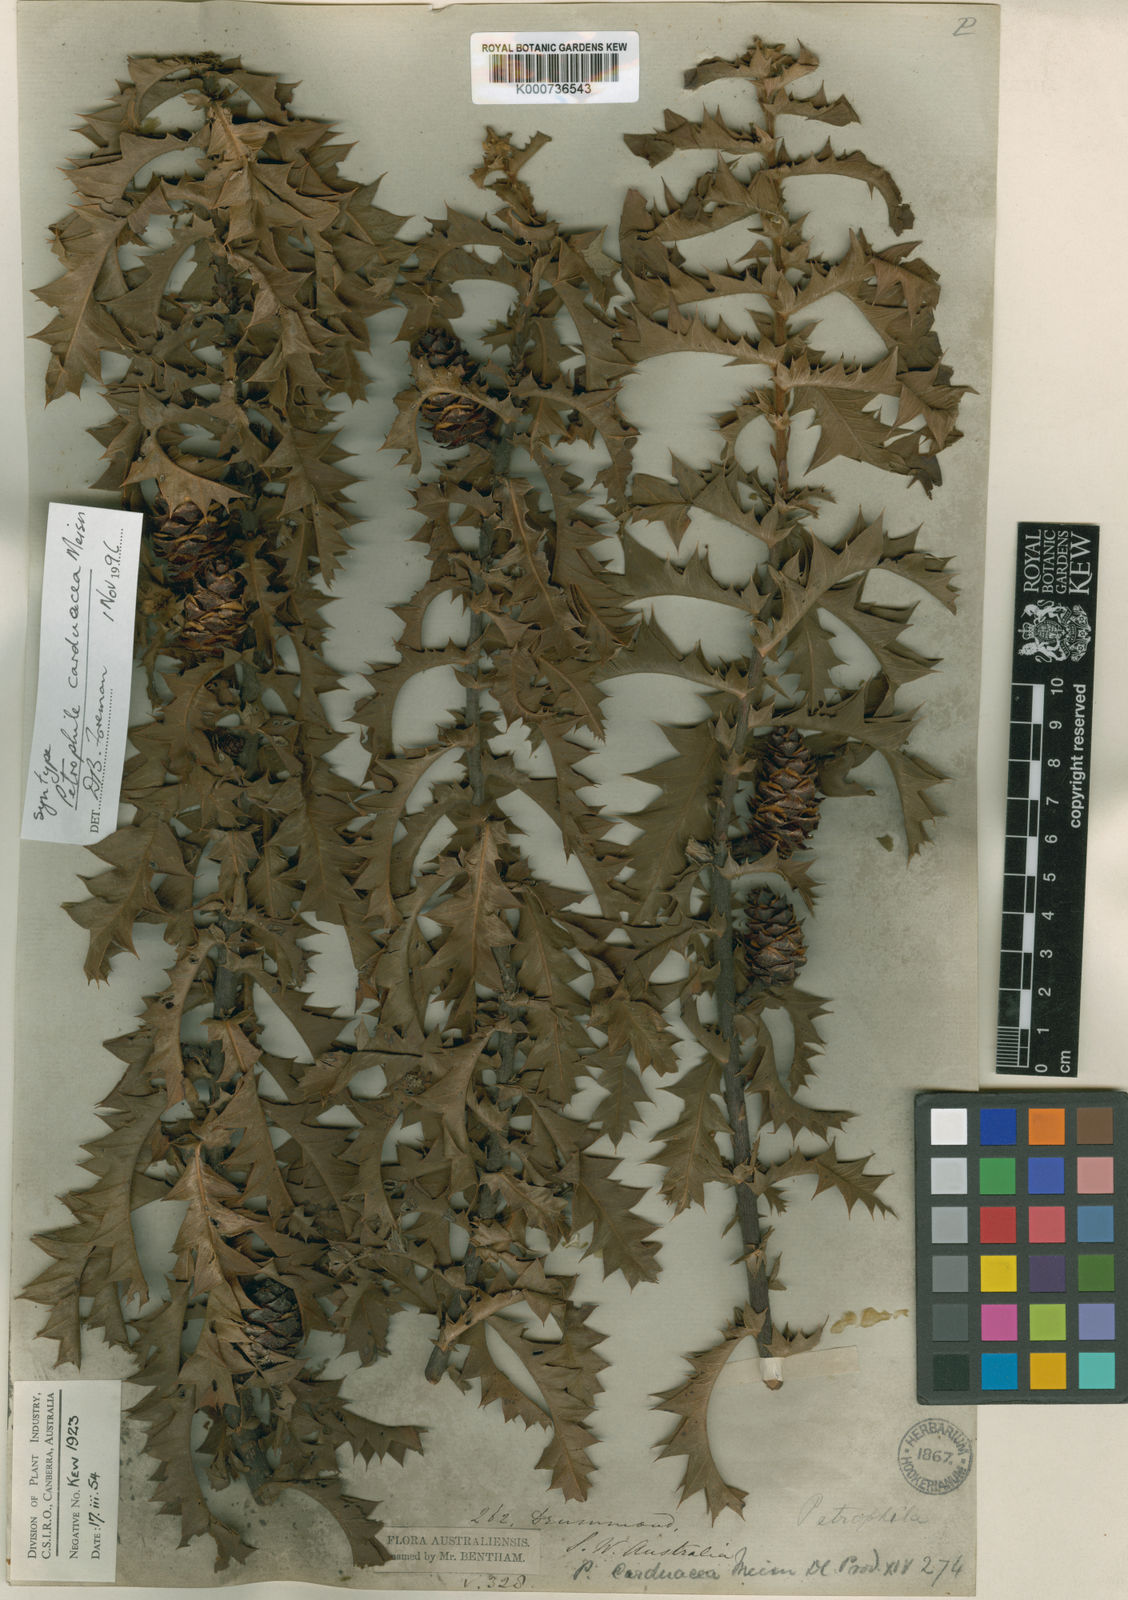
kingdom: Plantae
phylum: Tracheophyta
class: Magnoliopsida
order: Proteales
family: Proteaceae
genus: Petrophile
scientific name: Petrophile carduacea
